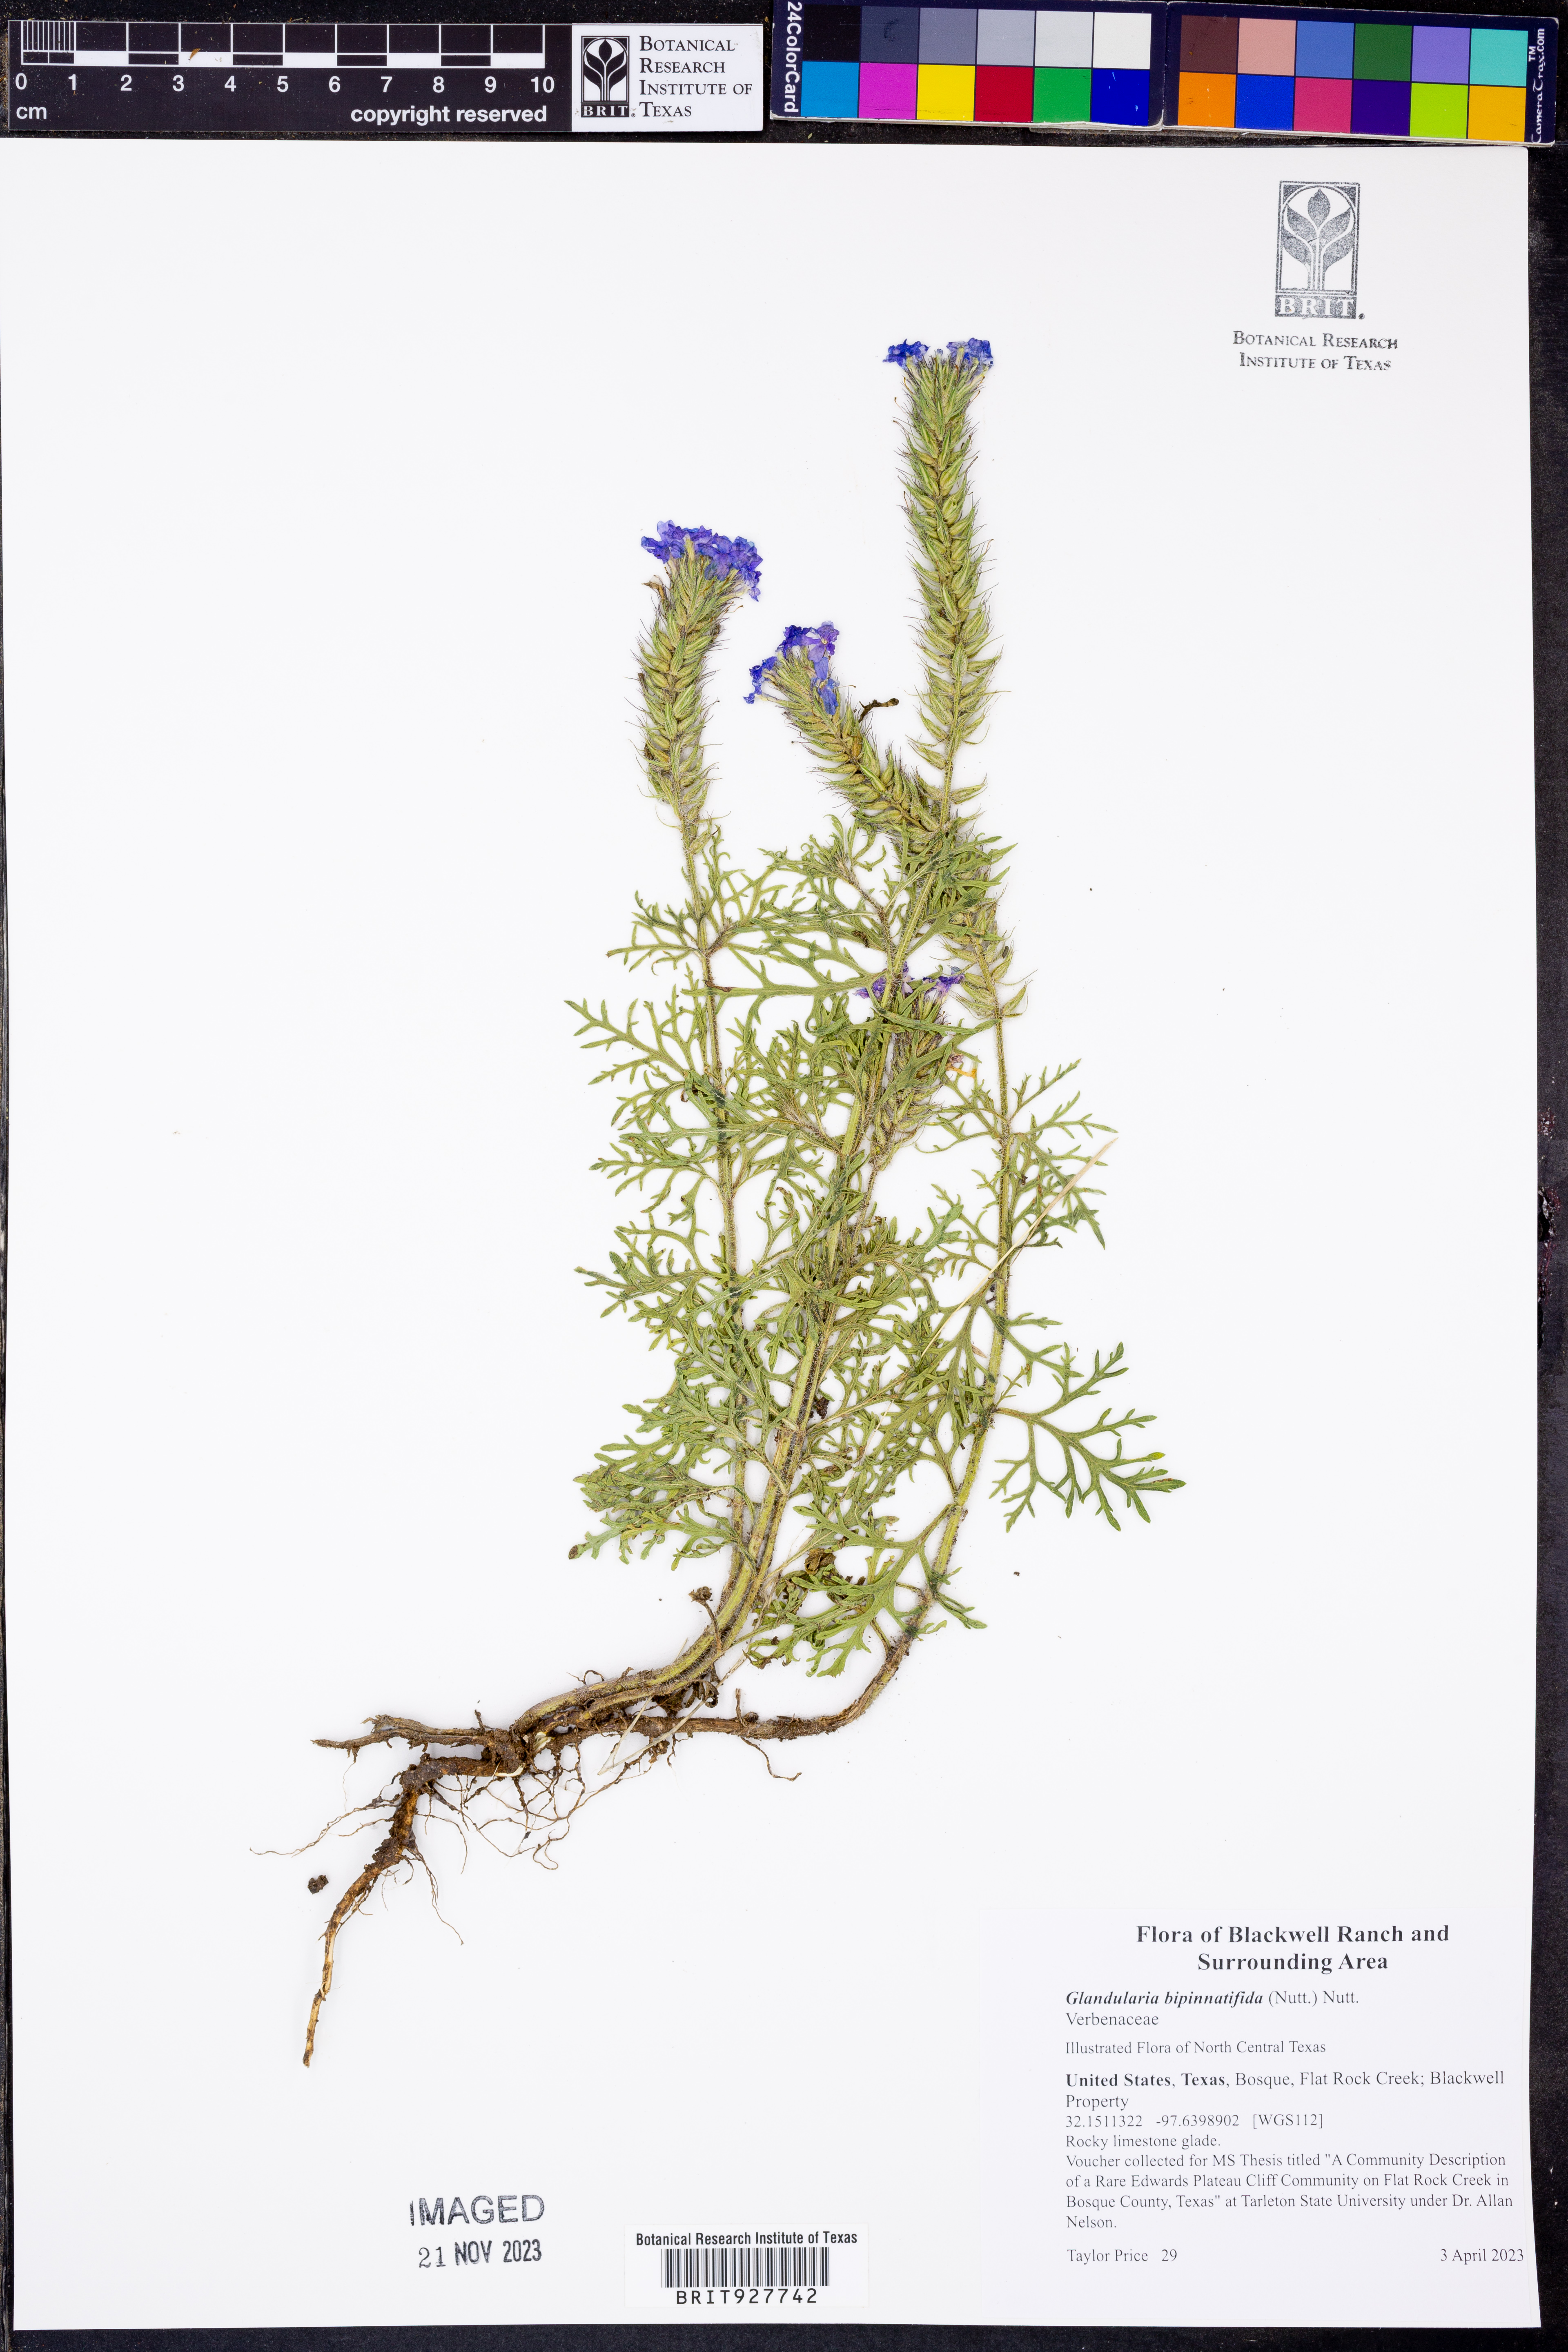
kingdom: Plantae
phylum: Tracheophyta
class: Magnoliopsida
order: Lamiales
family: Verbenaceae
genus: Verbena
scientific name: Verbena bipinnatifida
